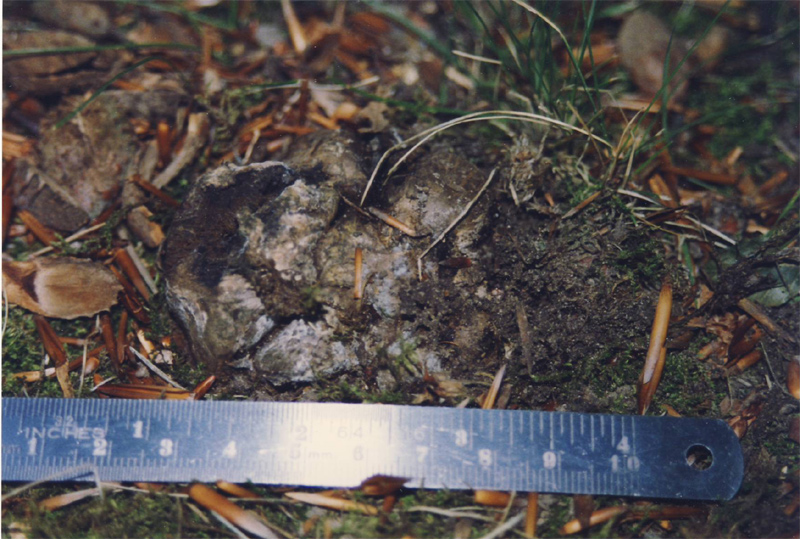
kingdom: Fungi
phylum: Basidiomycota
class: Agaricomycetes
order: Boletales
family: Boletaceae
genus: Octaviania
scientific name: Octaviania
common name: løvtrøffel
